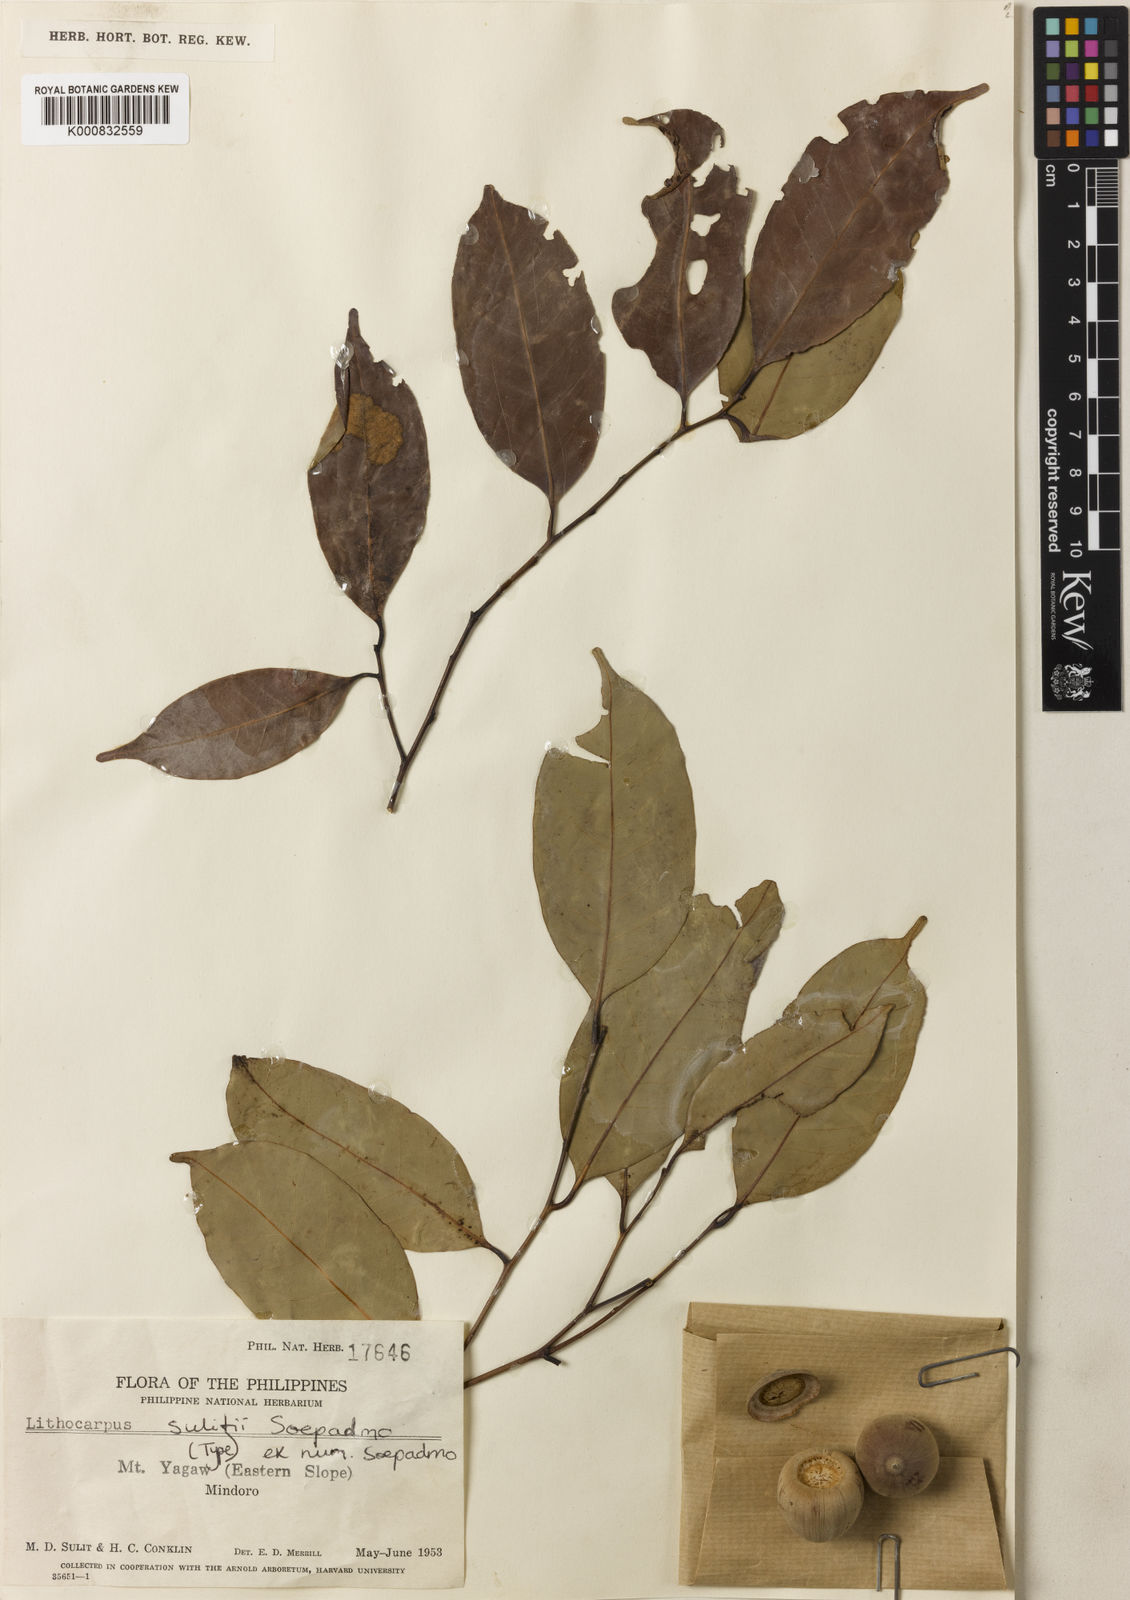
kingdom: Plantae
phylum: Tracheophyta
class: Magnoliopsida
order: Fagales
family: Fagaceae
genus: Lithocarpus
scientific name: Lithocarpus sulitii
